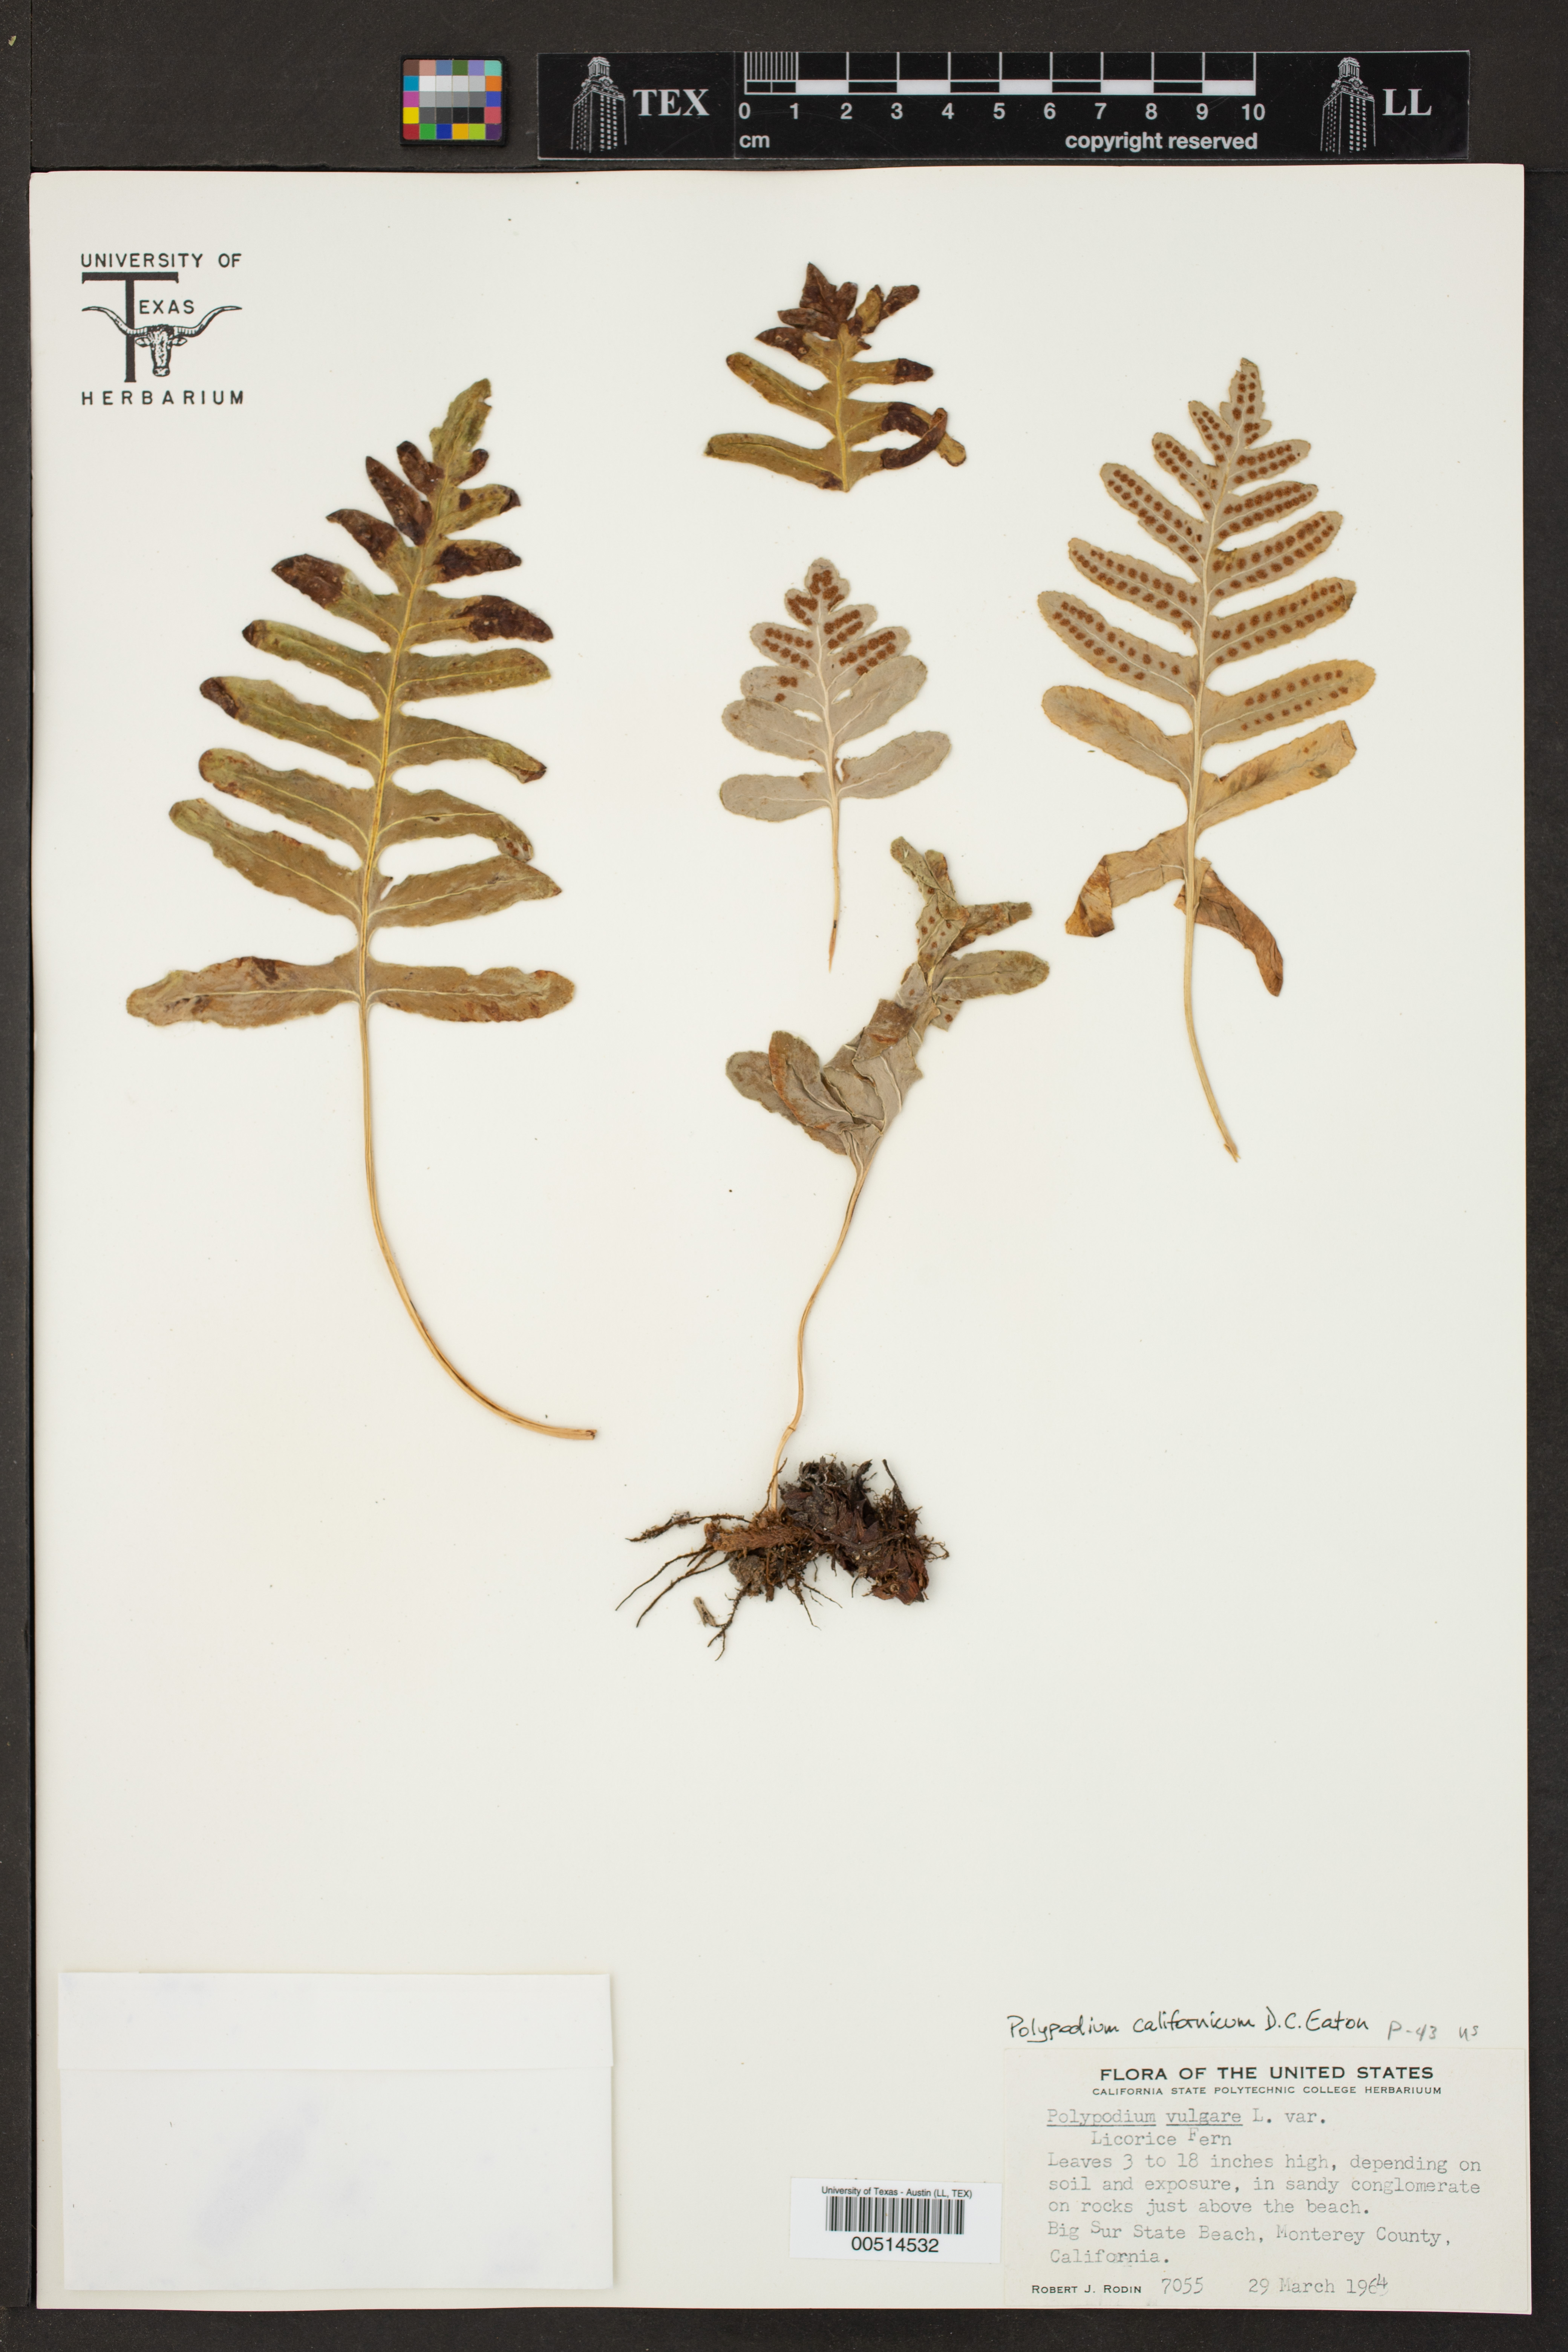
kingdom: Plantae
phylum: Tracheophyta
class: Polypodiopsida
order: Polypodiales
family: Polypodiaceae
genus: Polypodium
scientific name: Polypodium vulgare
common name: Common polypody
